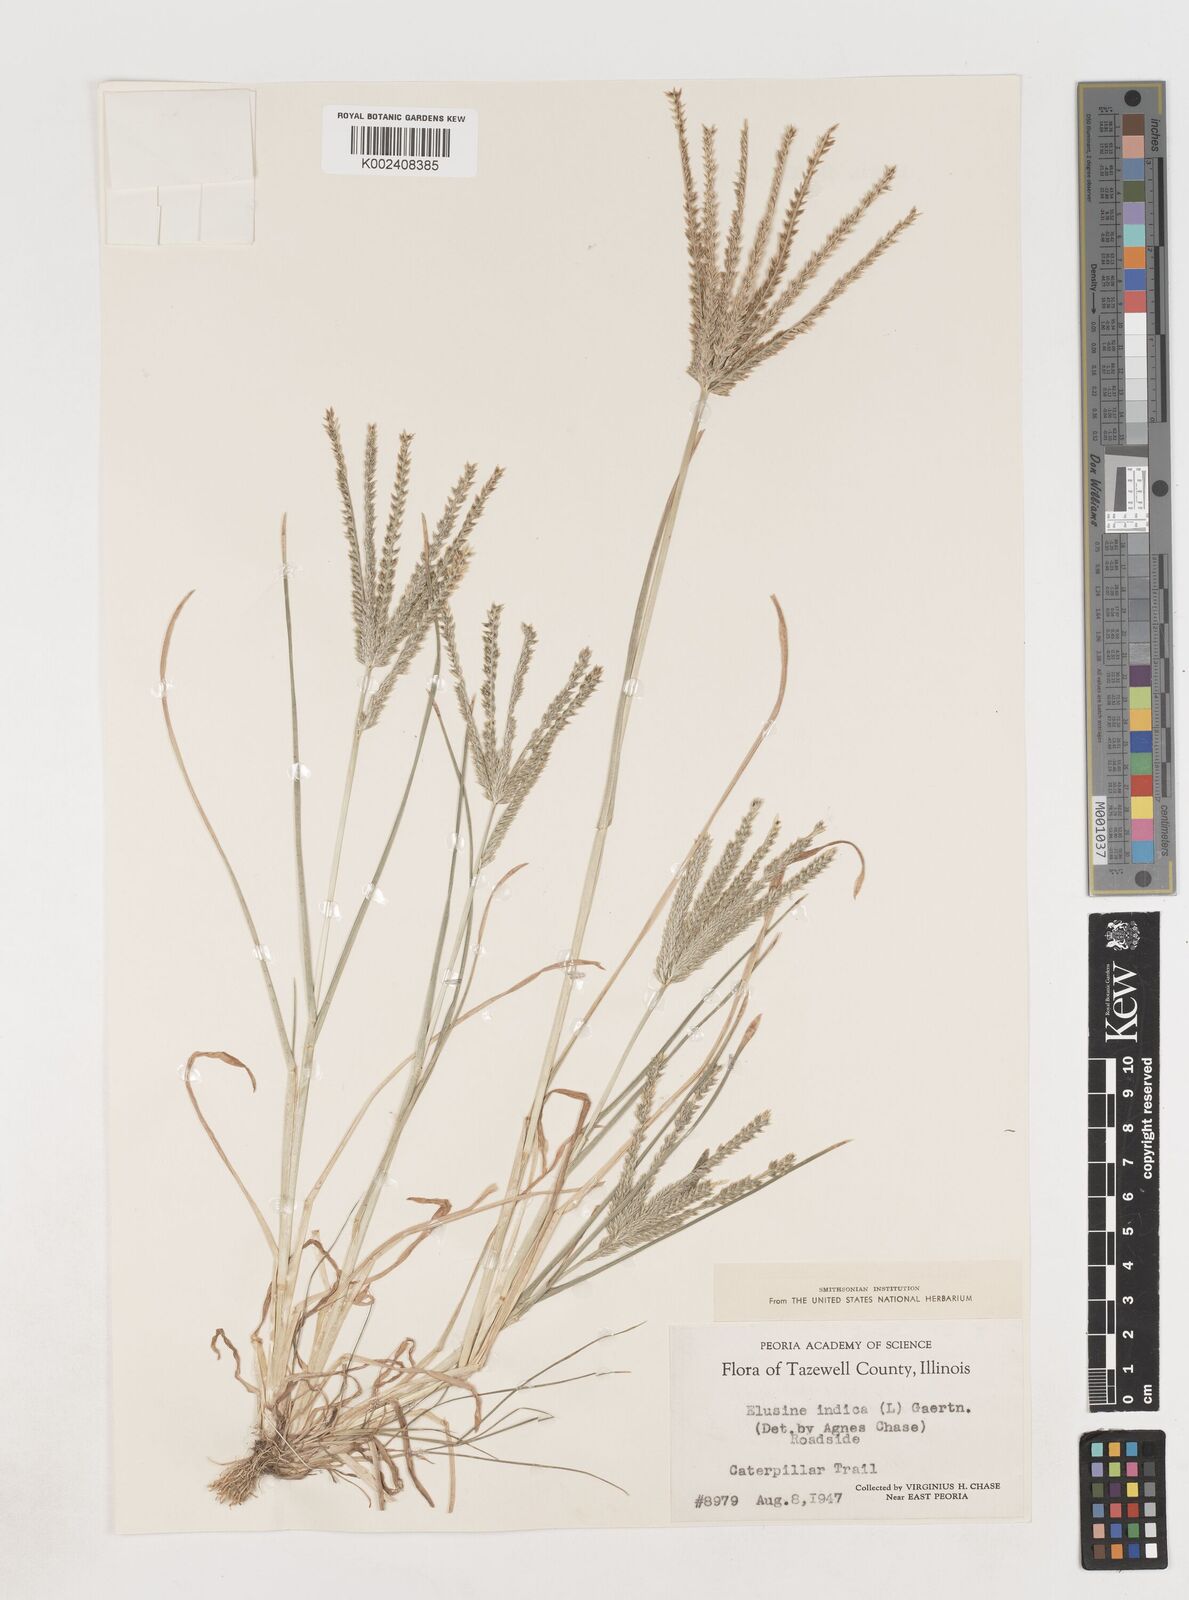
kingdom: Plantae
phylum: Tracheophyta
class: Liliopsida
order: Poales
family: Poaceae
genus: Eleusine
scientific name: Eleusine indica
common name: Yard-grass
